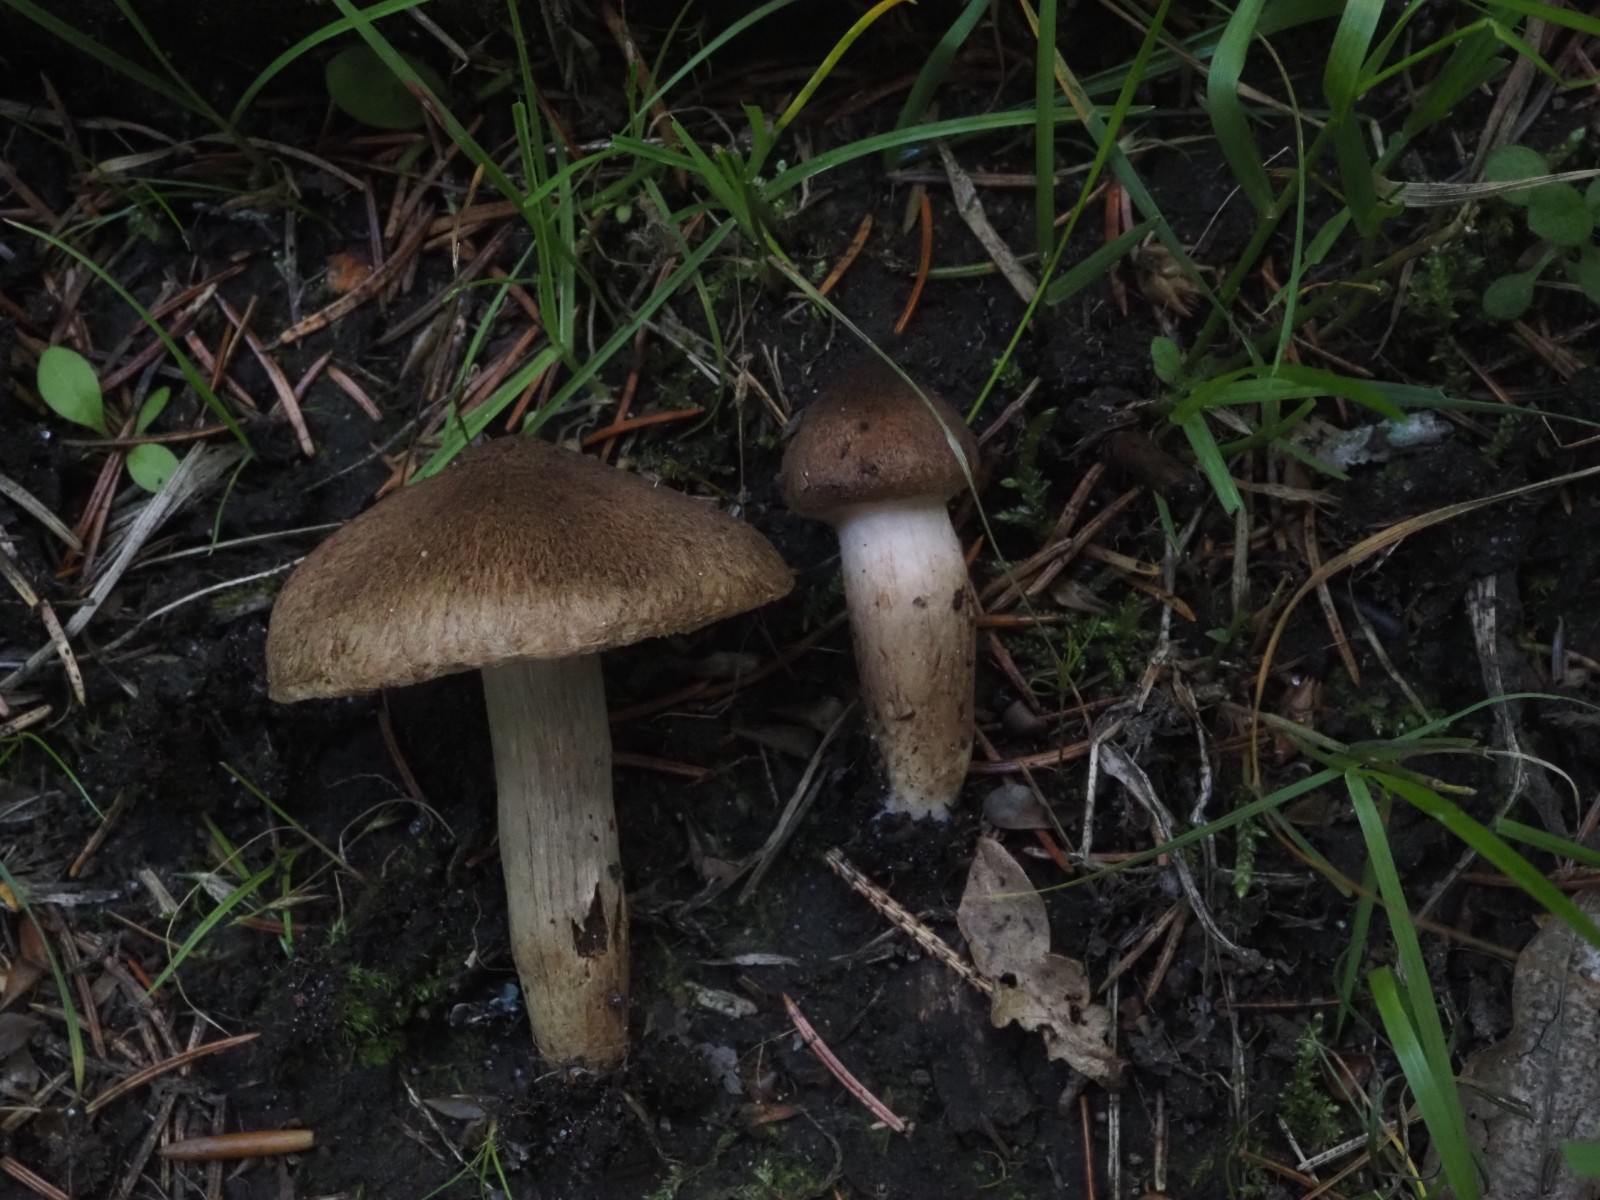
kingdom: Fungi
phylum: Basidiomycota
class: Agaricomycetes
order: Agaricales
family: Inocybaceae
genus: Inocybe
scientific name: Inocybe
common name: trævlhat
